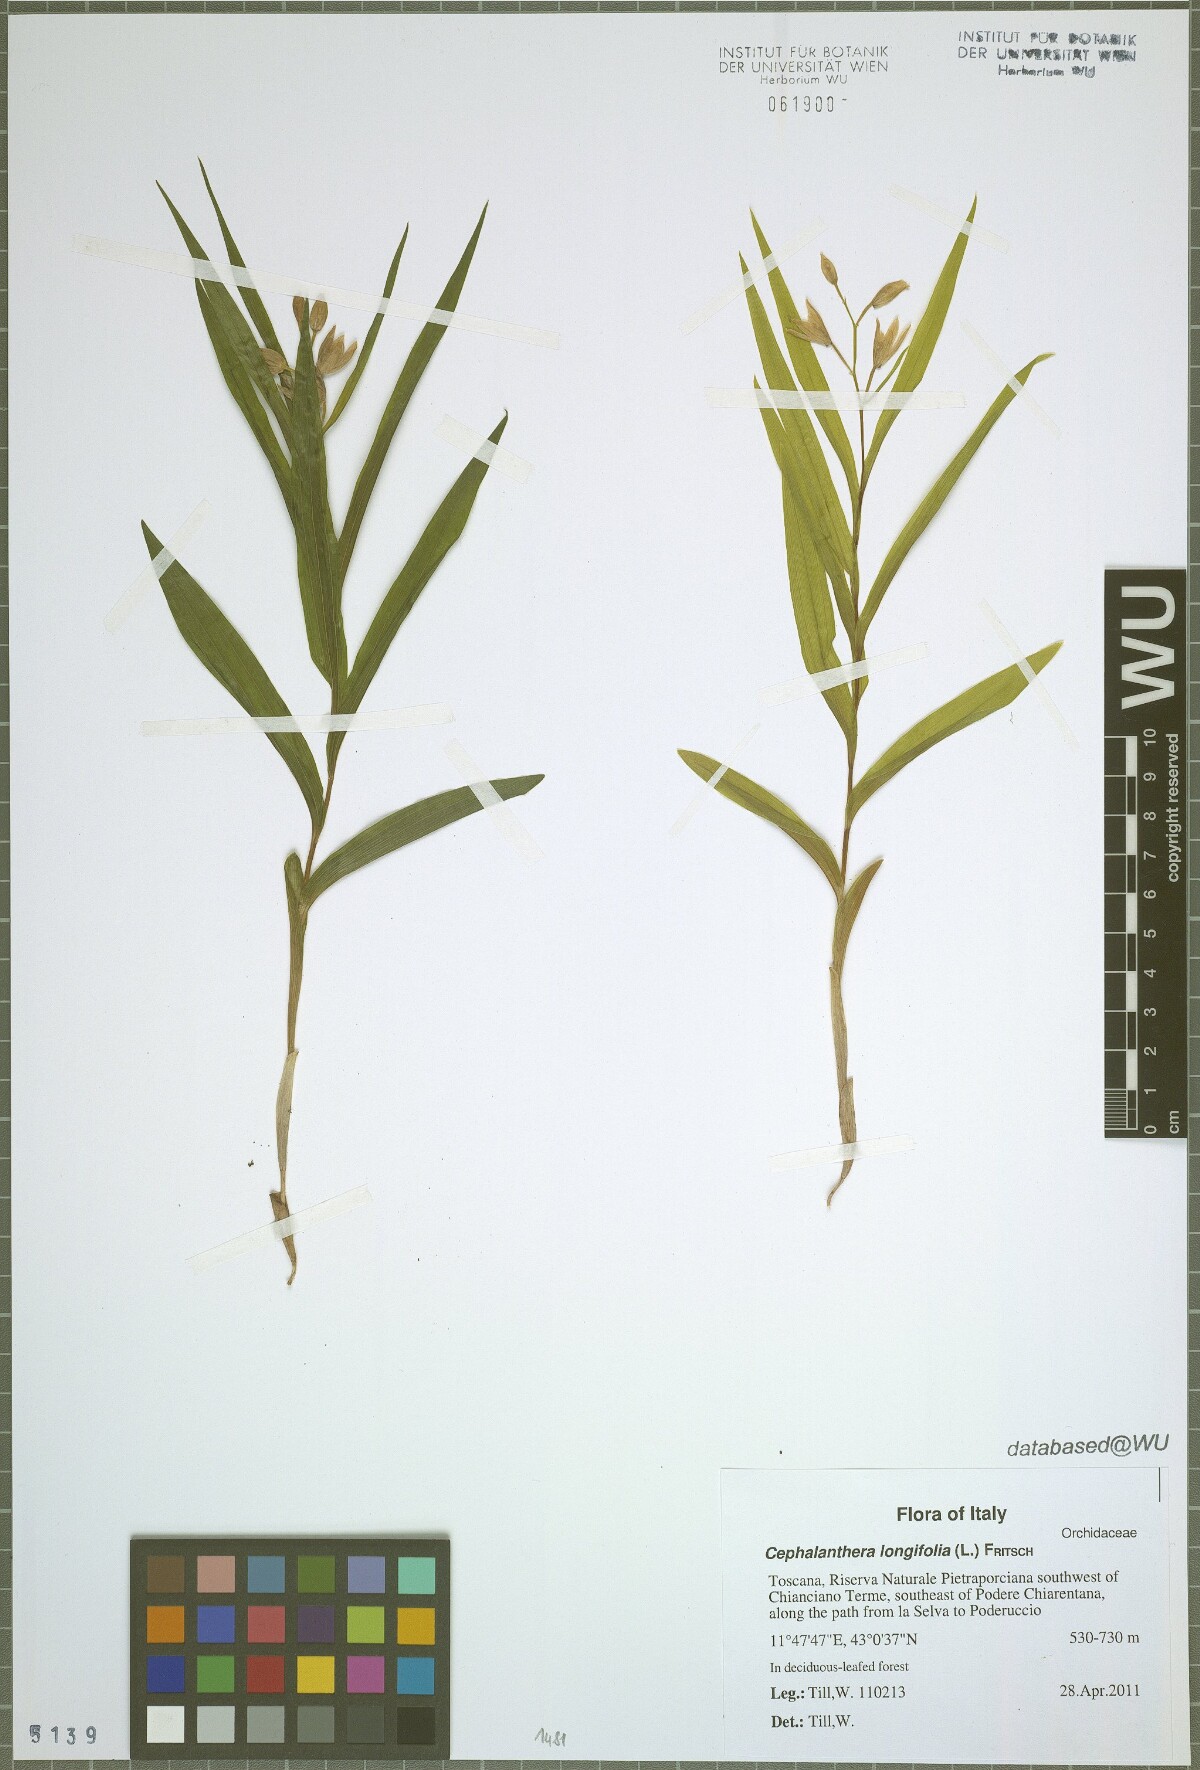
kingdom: Plantae
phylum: Tracheophyta
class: Liliopsida
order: Asparagales
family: Orchidaceae
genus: Cephalanthera
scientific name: Cephalanthera longifolia
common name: Narrow-leaved helleborine
